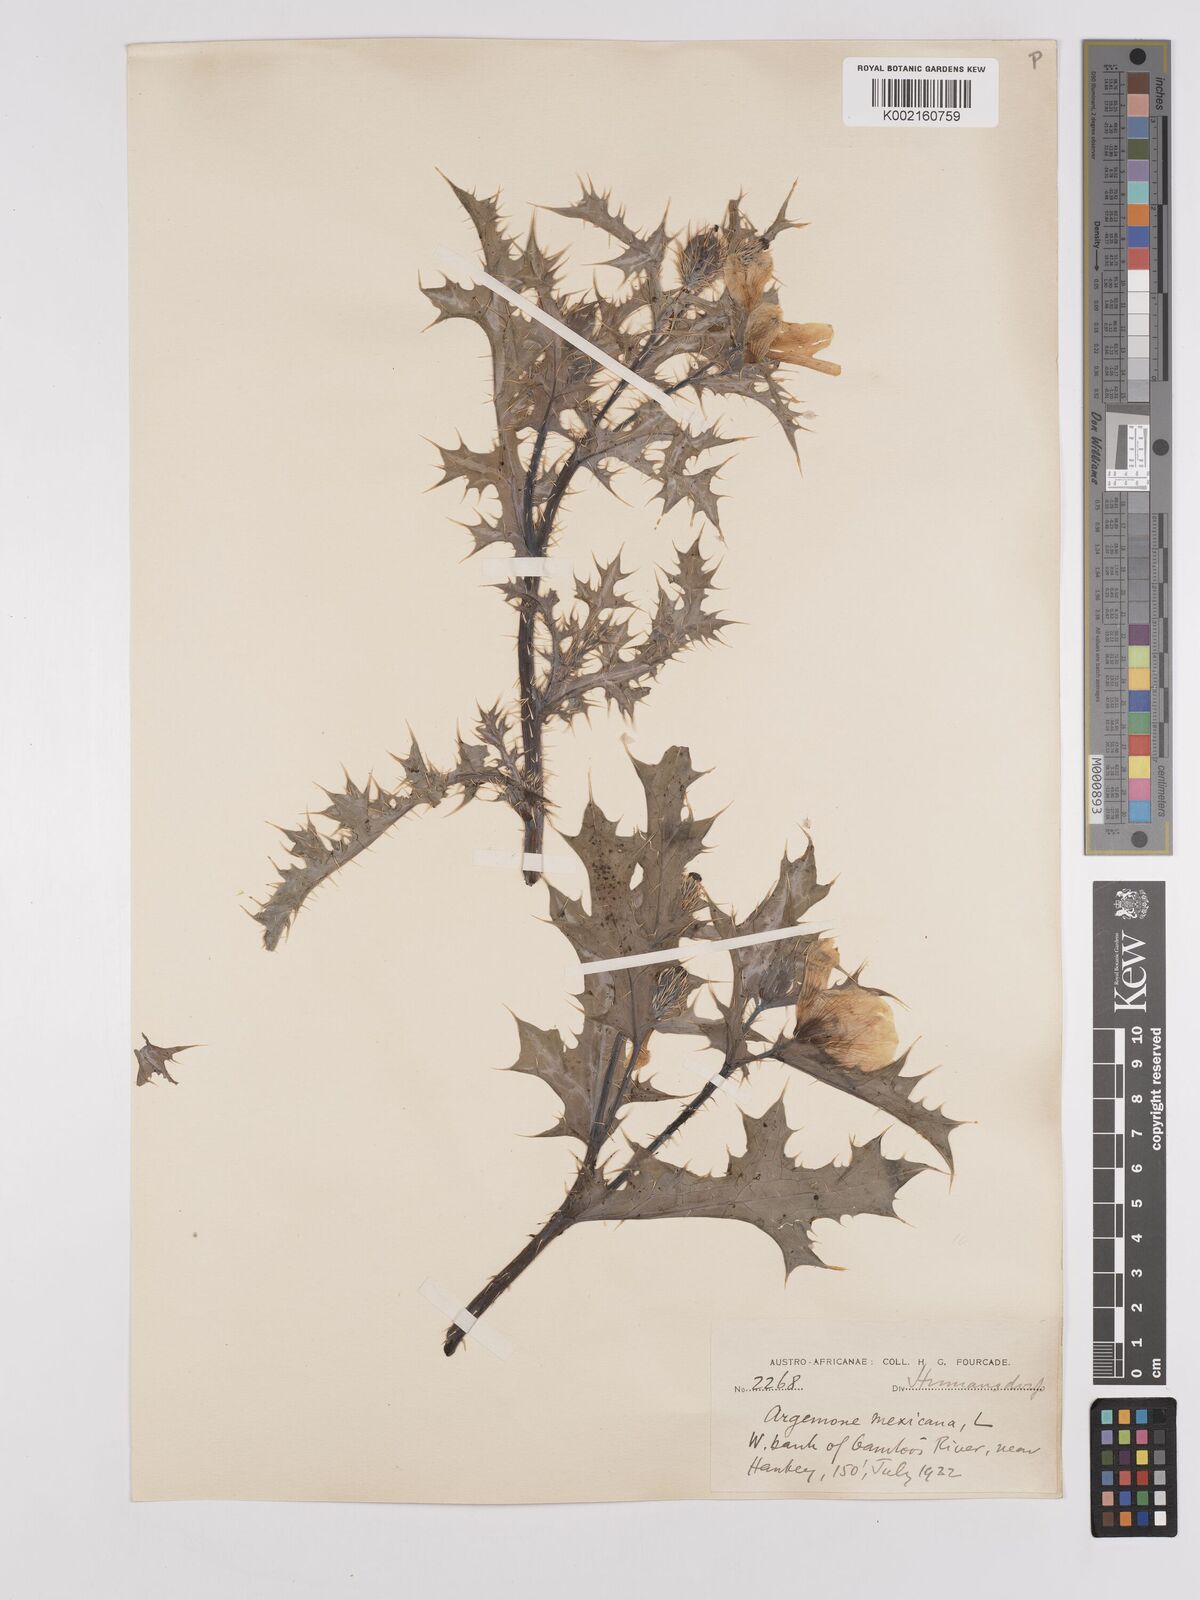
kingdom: Plantae
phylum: Tracheophyta
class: Magnoliopsida
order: Ranunculales
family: Papaveraceae
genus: Argemone
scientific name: Argemone mexicana
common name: Mexican poppy
